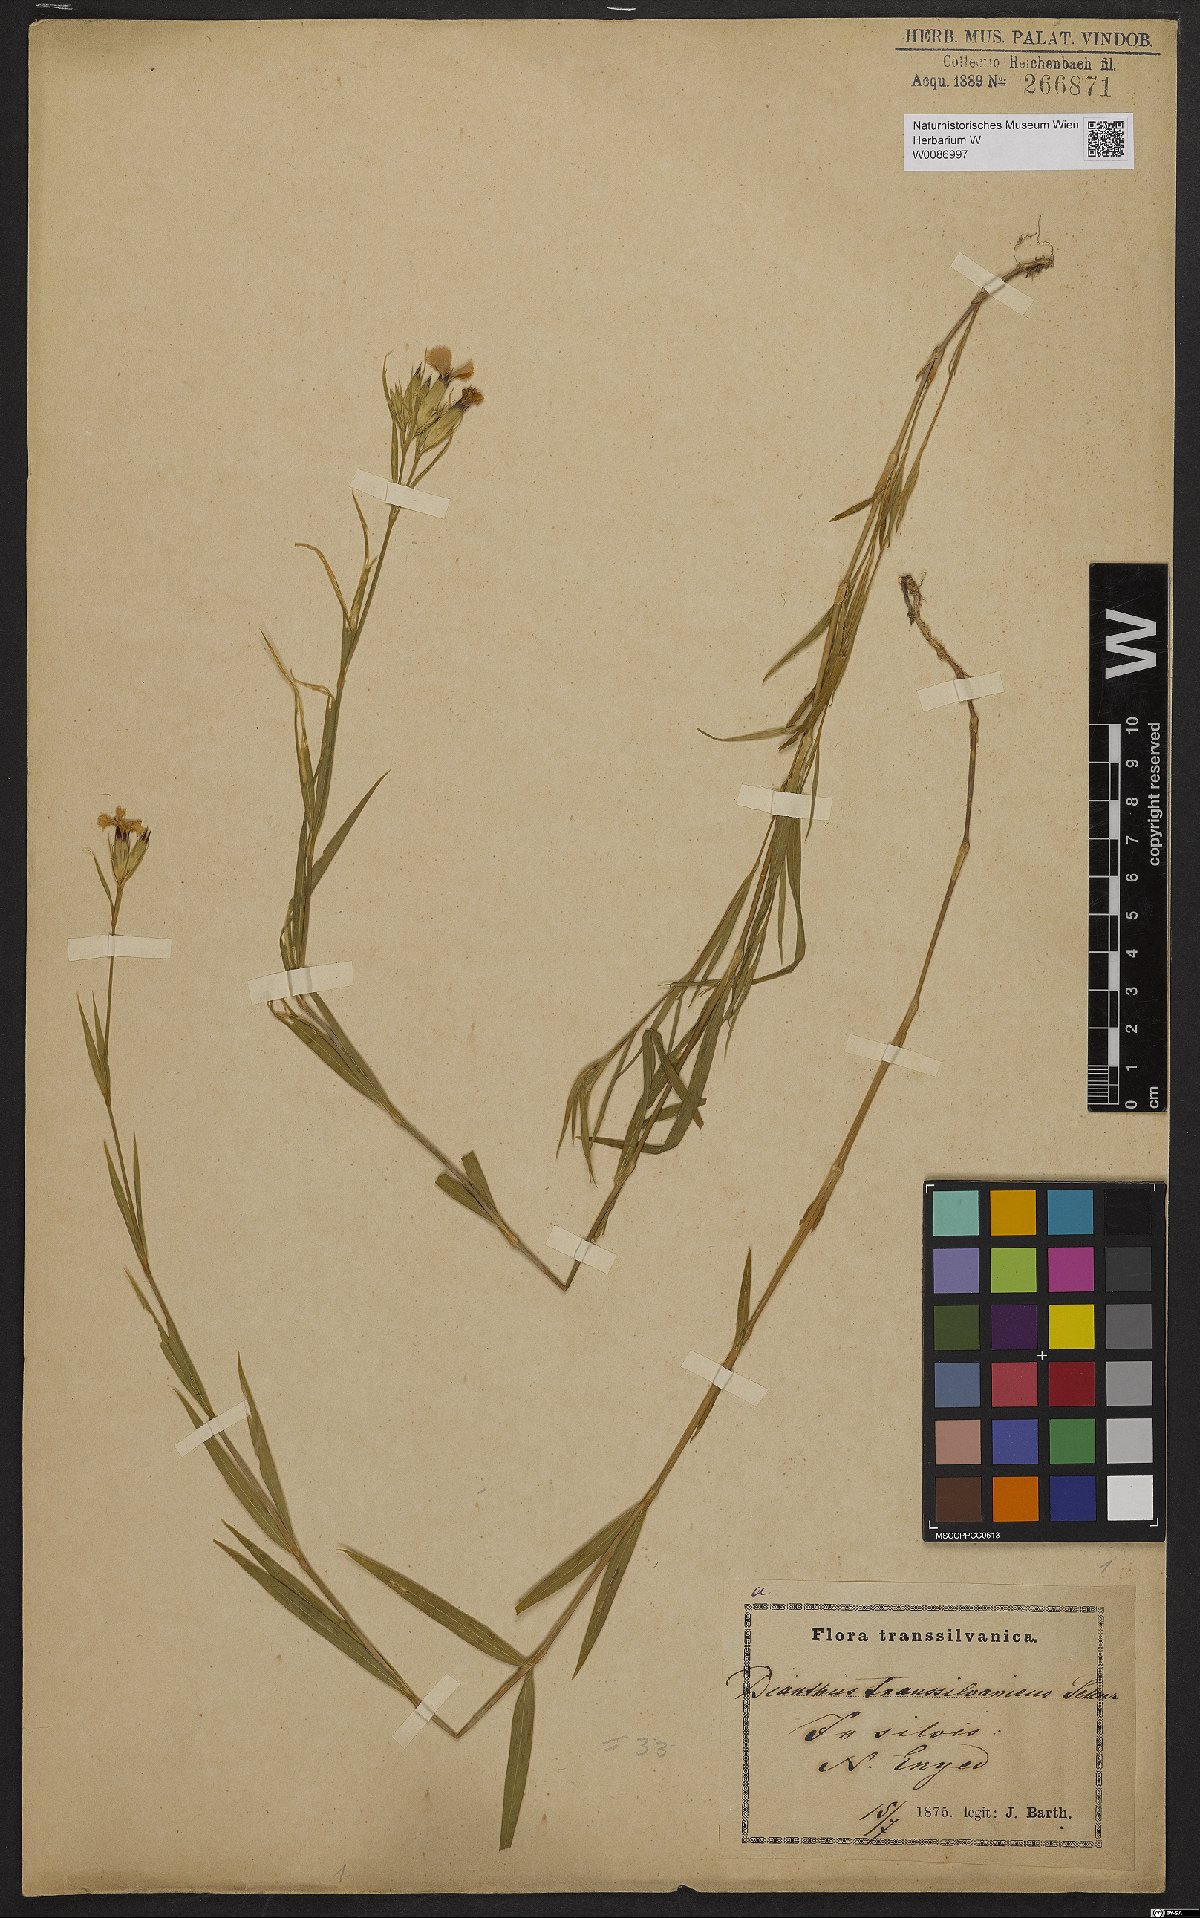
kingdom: Plantae
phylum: Tracheophyta
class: Magnoliopsida
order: Caryophyllales
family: Caryophyllaceae
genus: Dianthus
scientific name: Dianthus trifasciculatus
